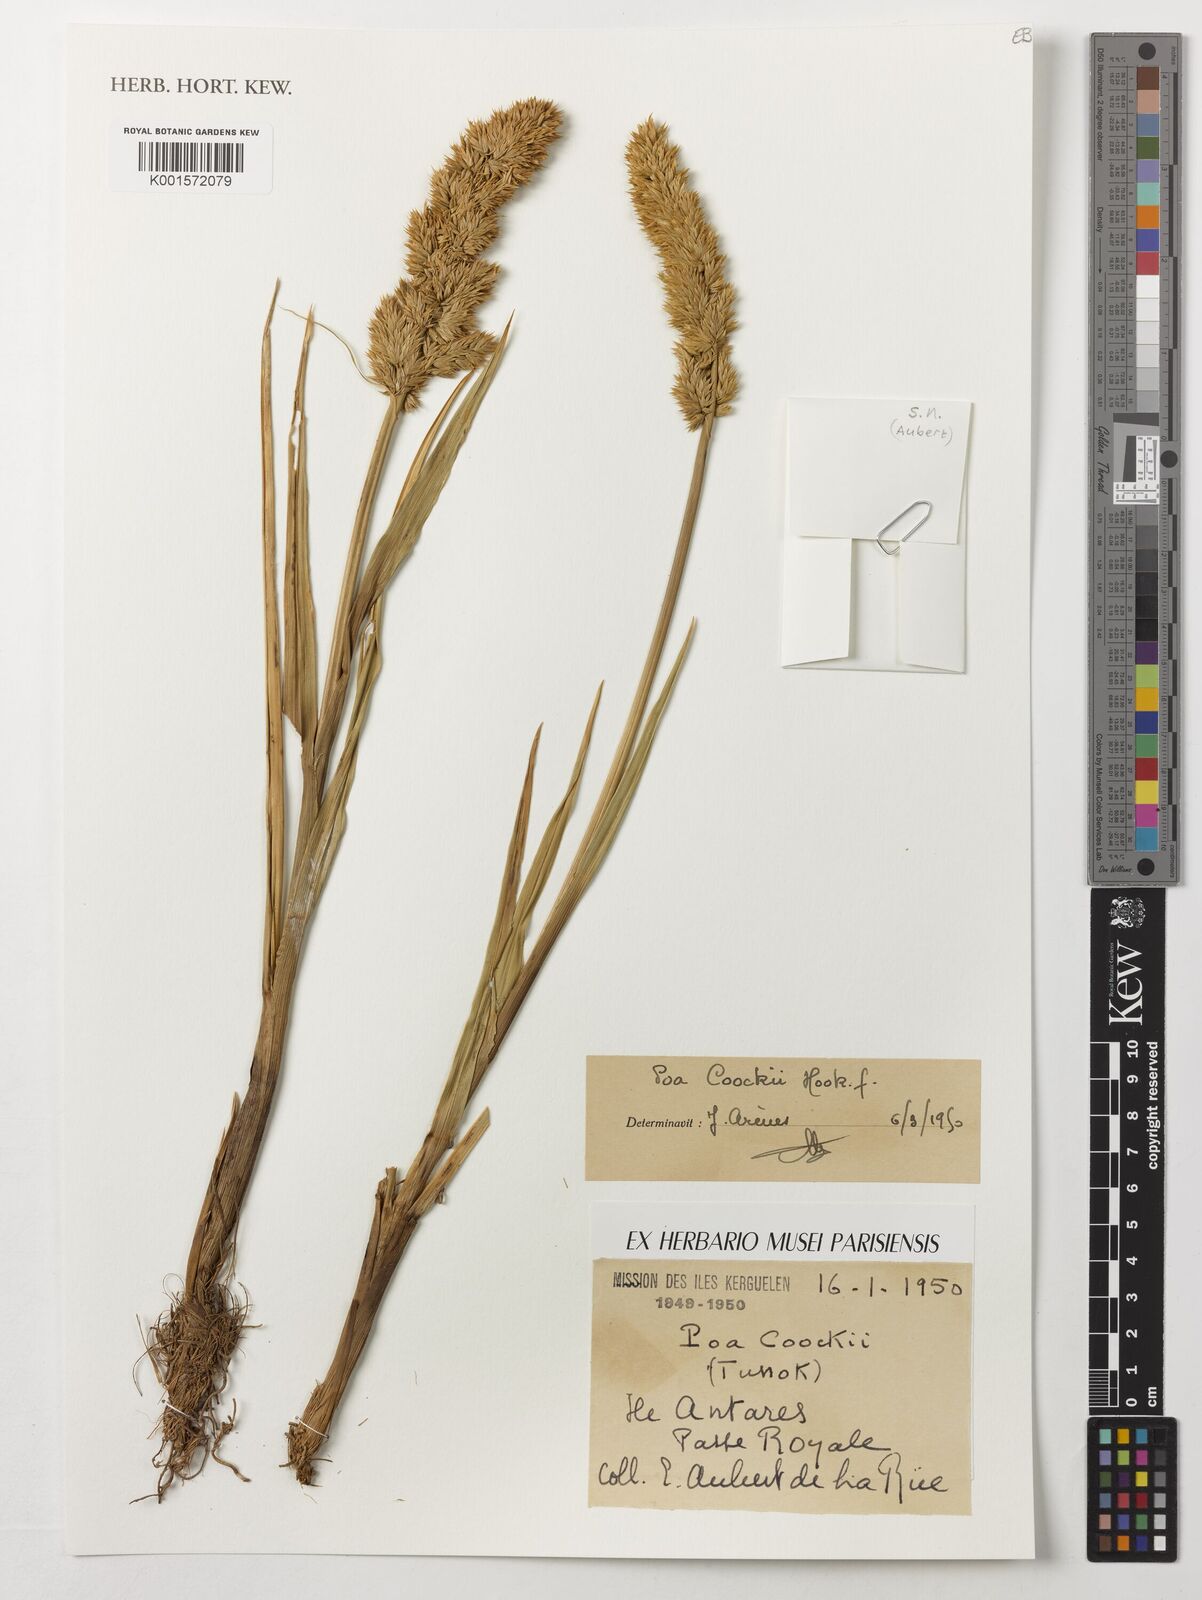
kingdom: Plantae
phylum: Tracheophyta
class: Liliopsida
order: Poales
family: Poaceae
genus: Poa
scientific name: Poa cookii
